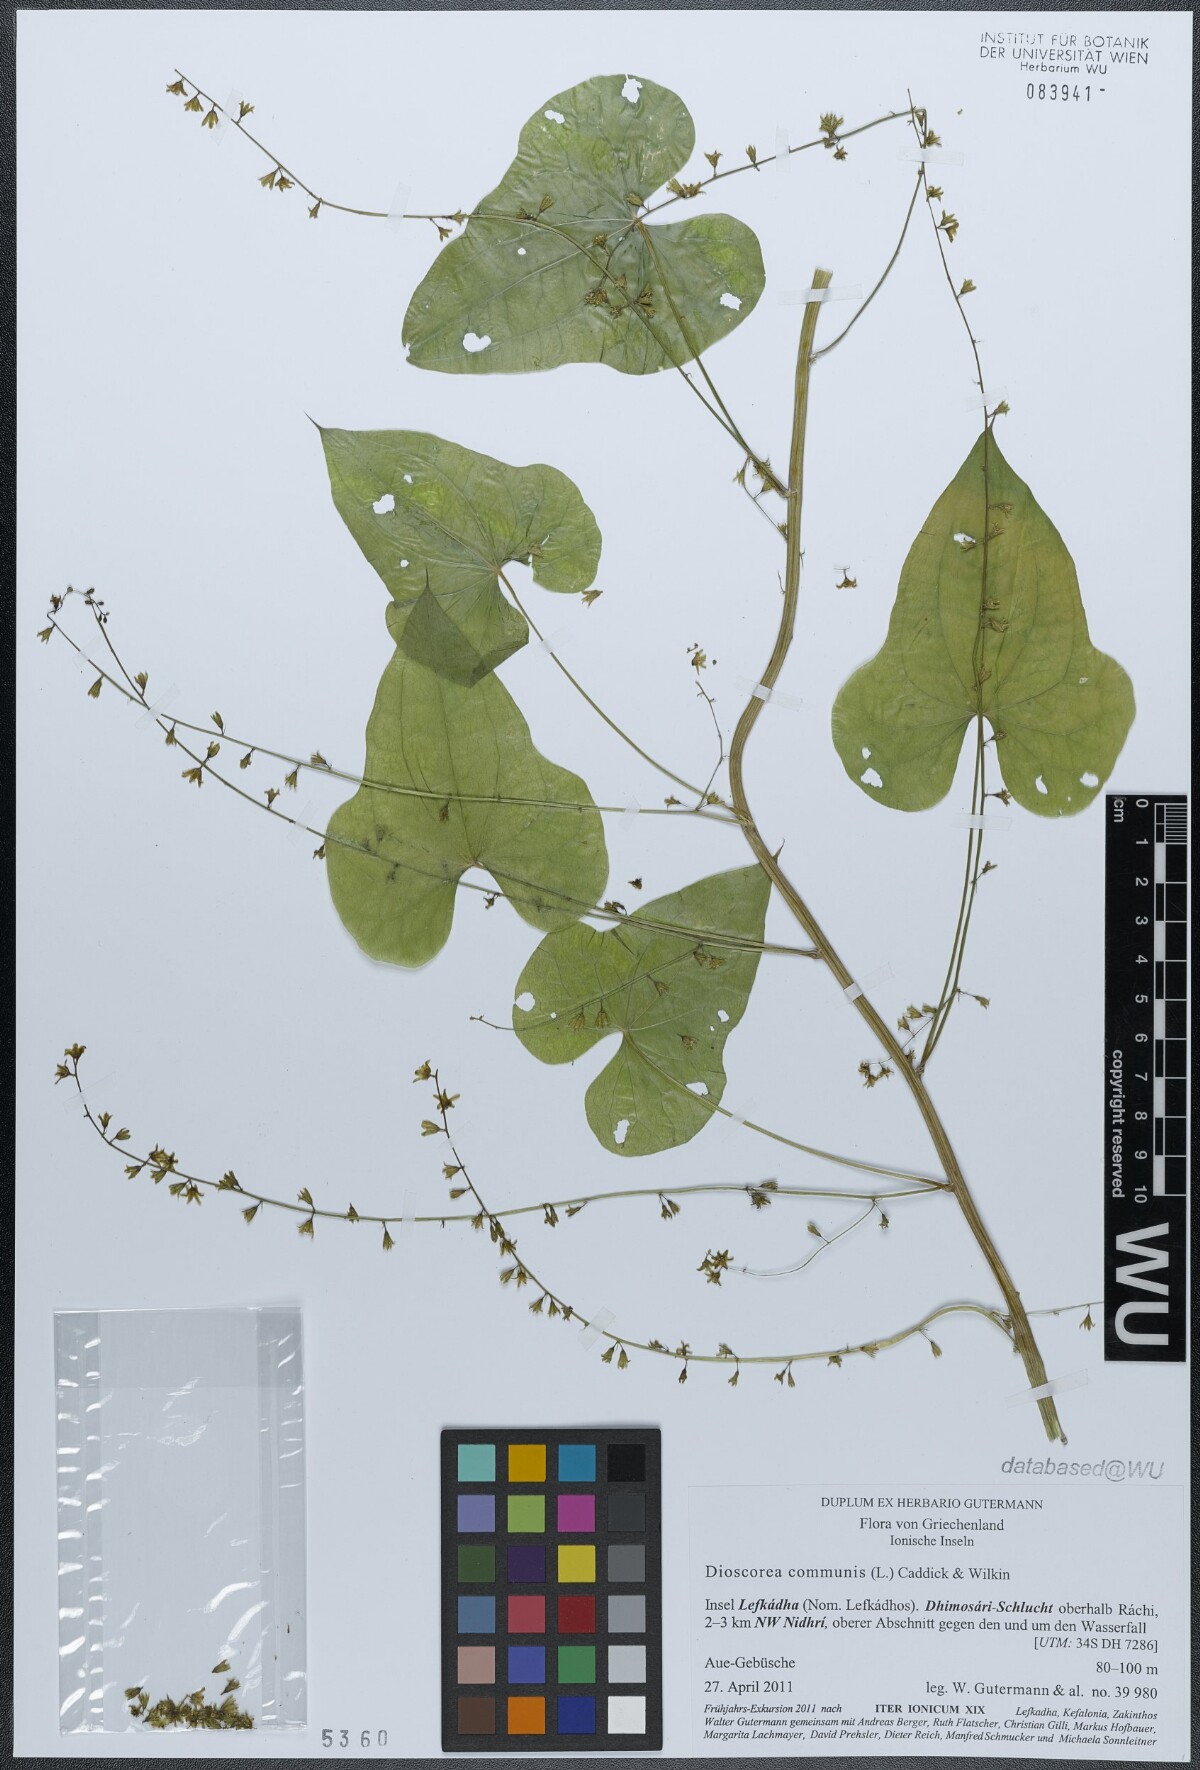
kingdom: Plantae
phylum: Tracheophyta
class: Liliopsida
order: Dioscoreales
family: Dioscoreaceae
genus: Dioscorea
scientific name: Dioscorea communis
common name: Black-bindweed
